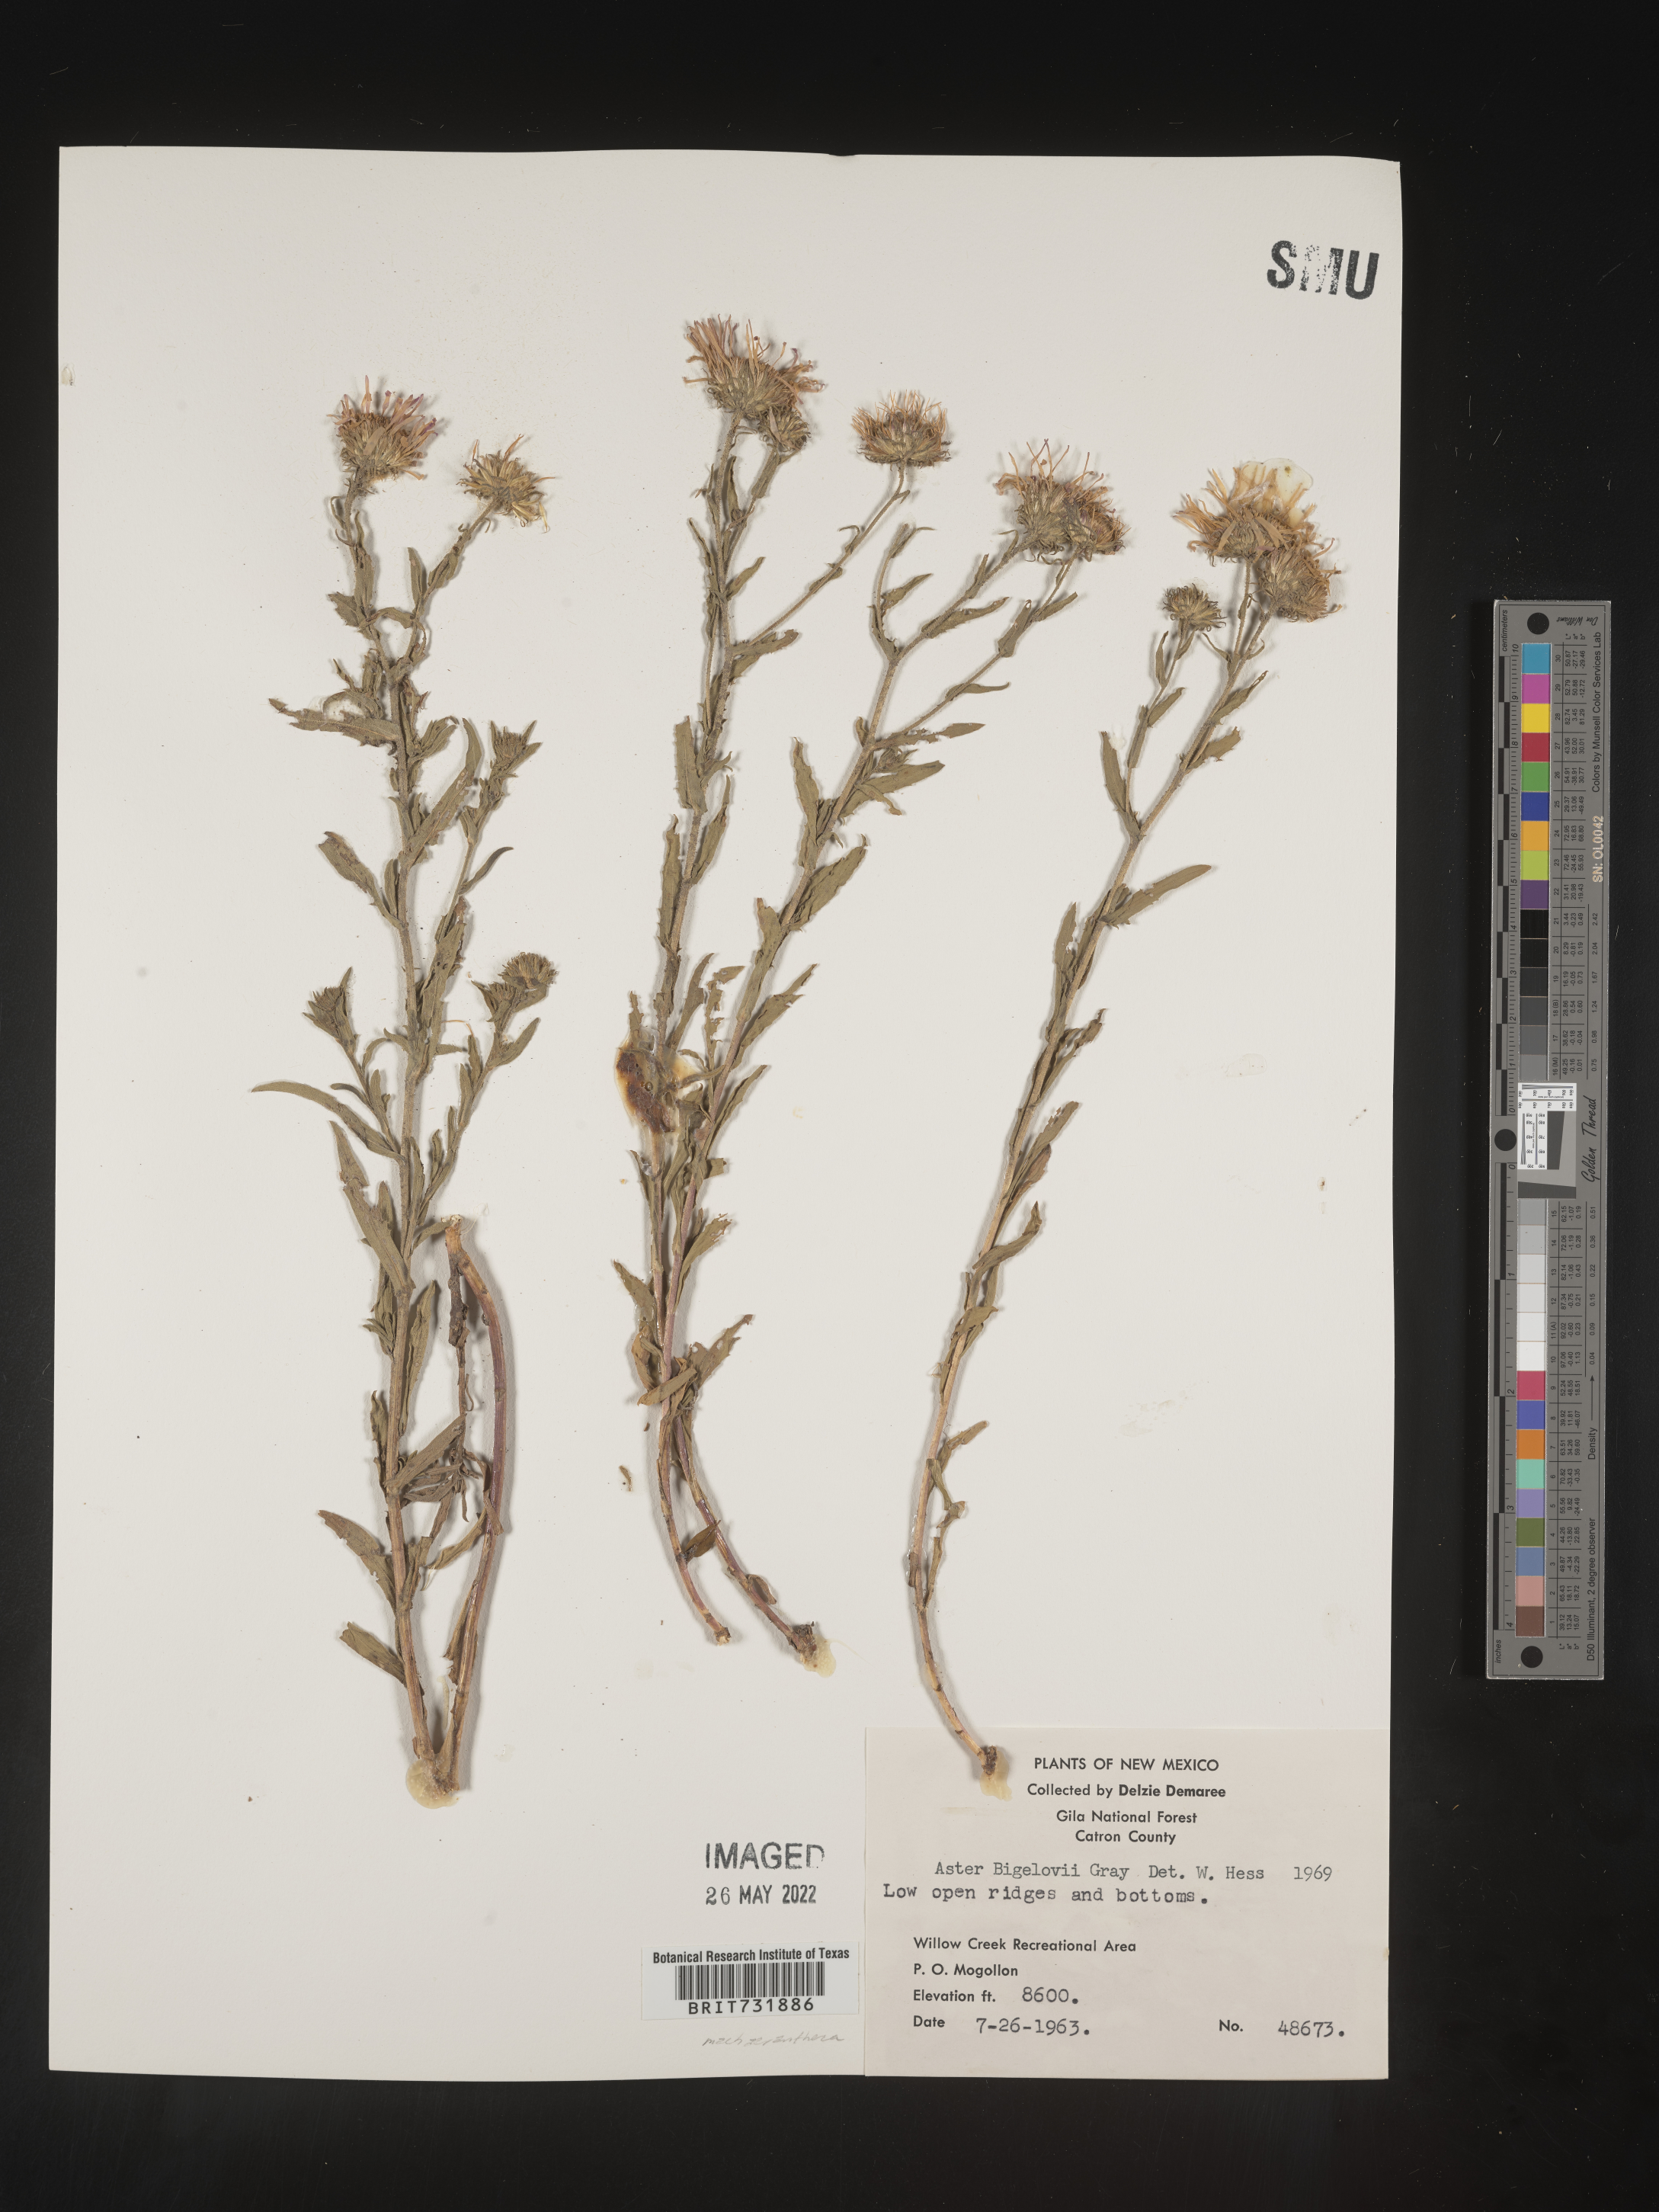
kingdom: Plantae
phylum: Tracheophyta
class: Magnoliopsida
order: Asterales
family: Asteraceae
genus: Dieteria
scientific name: Dieteria bigelovii
